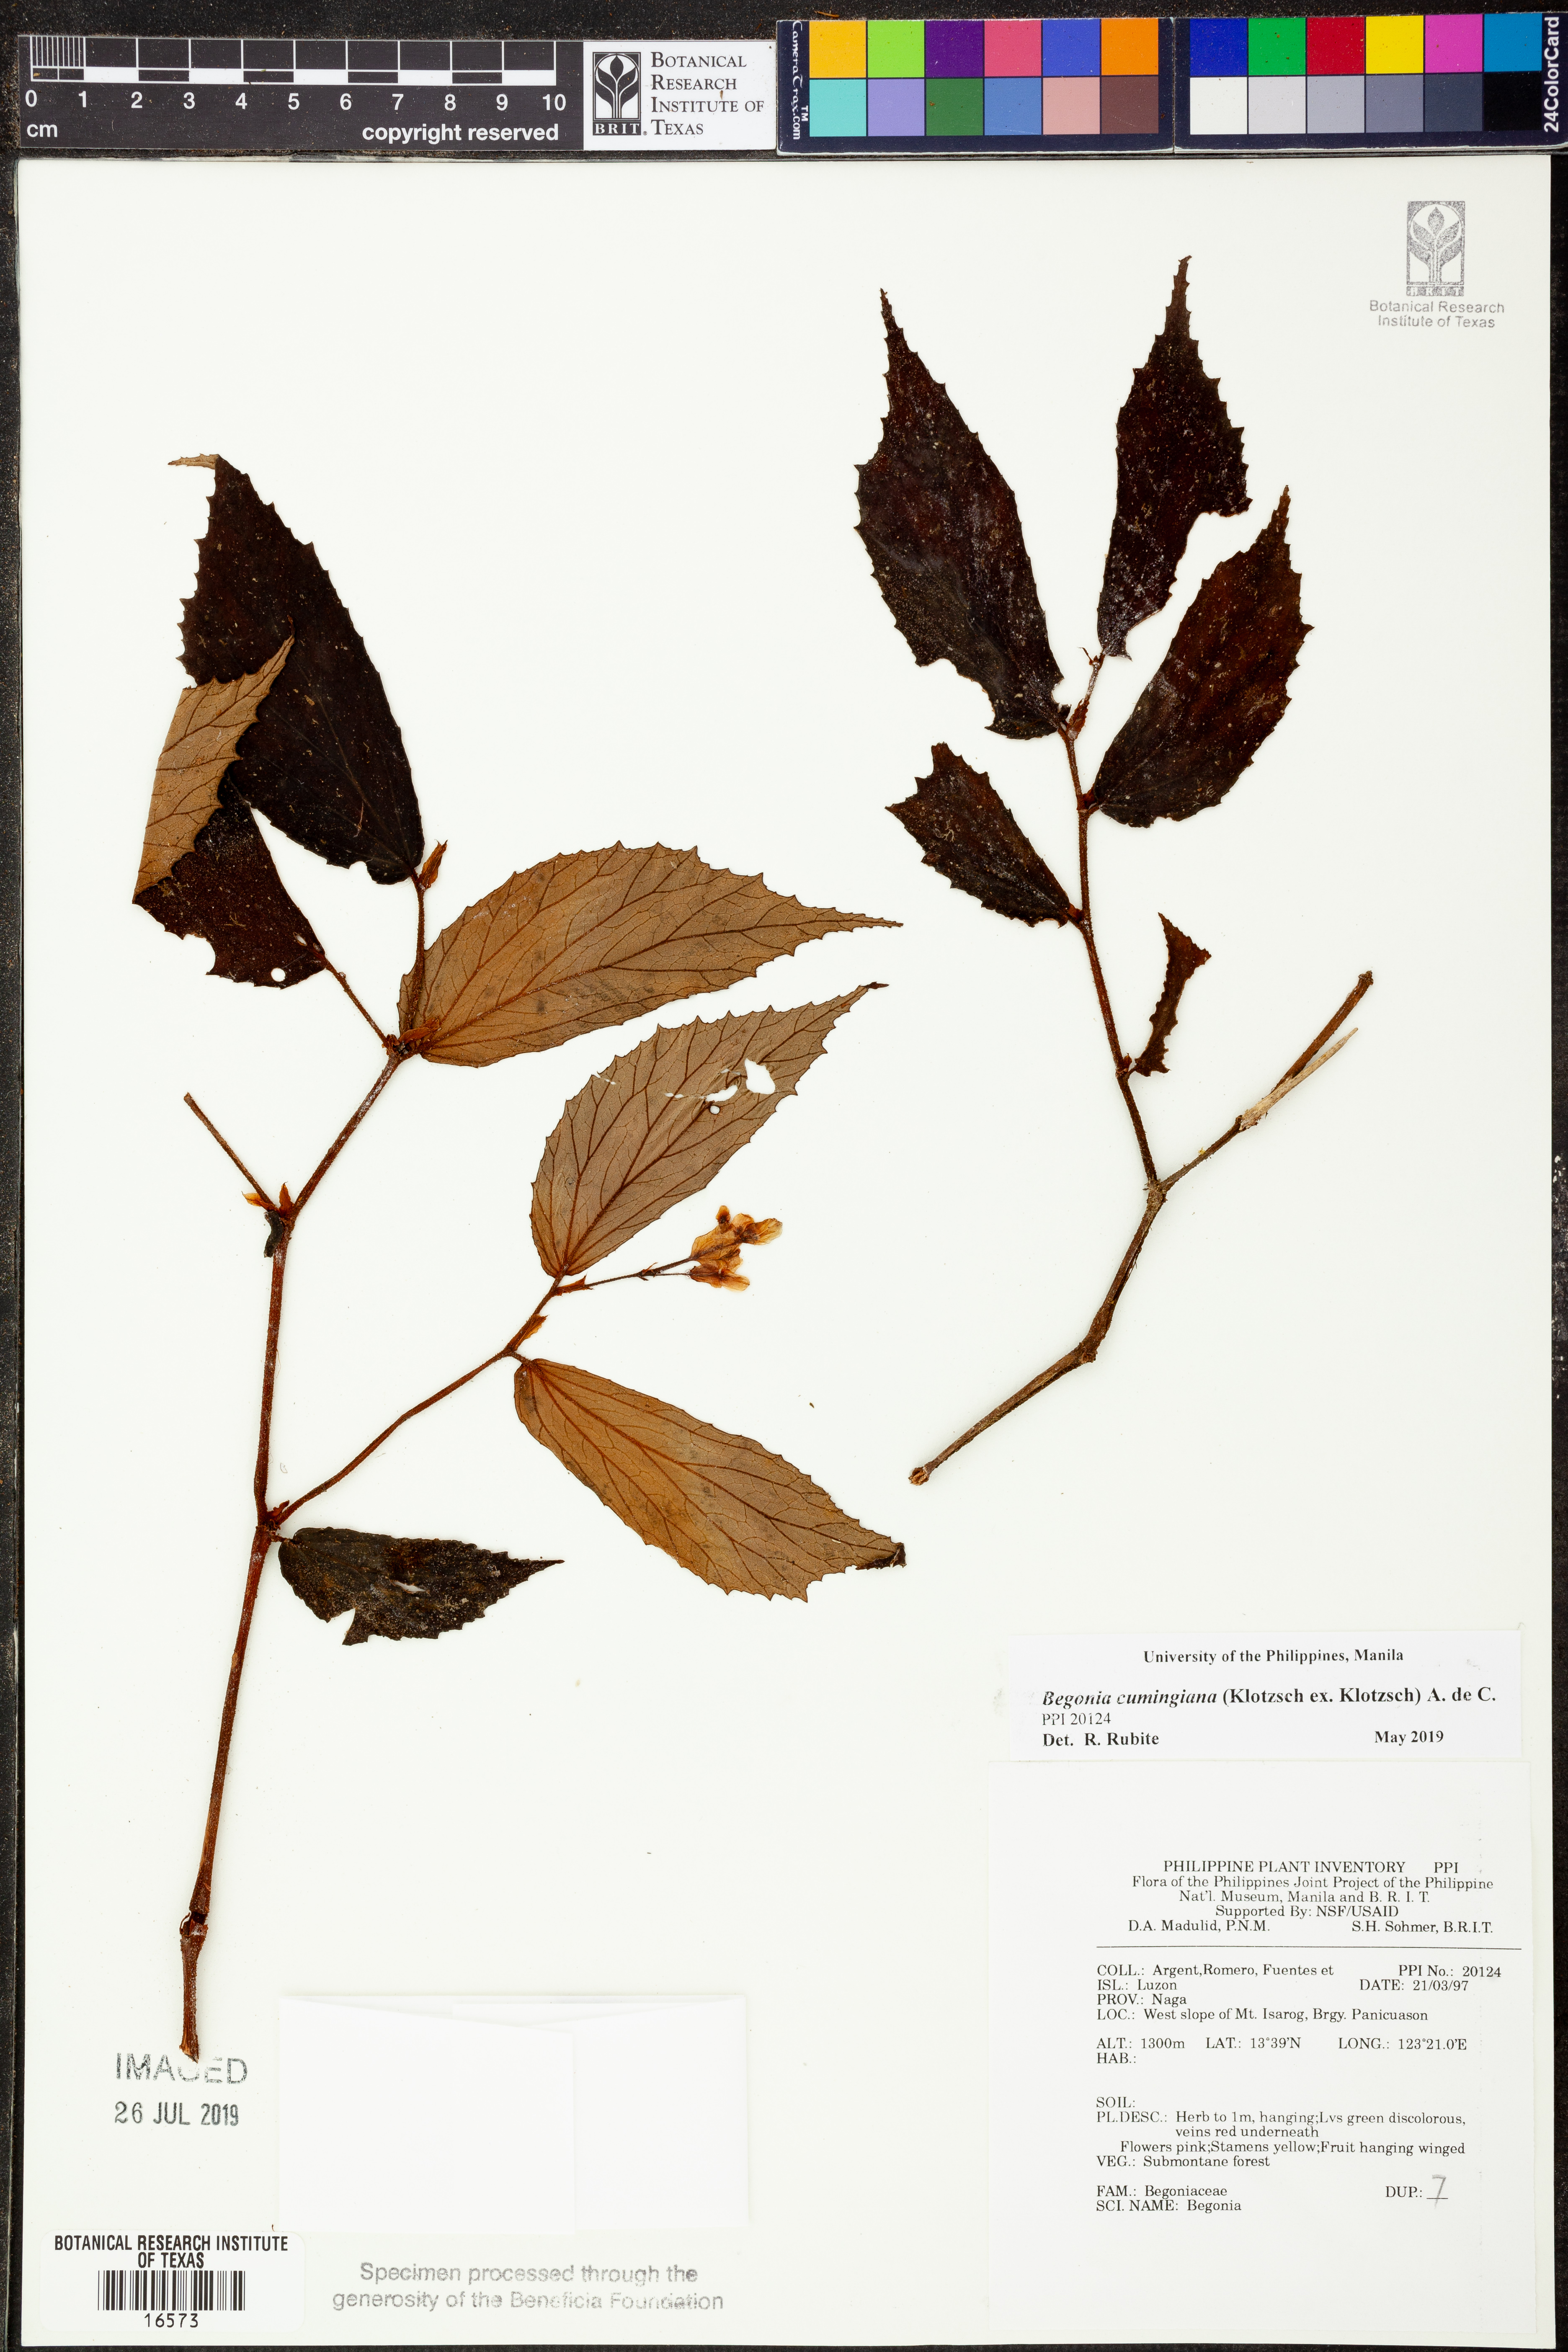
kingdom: Plantae
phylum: Tracheophyta
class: Magnoliopsida
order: Cucurbitales
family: Begoniaceae
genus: Begonia
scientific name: Begonia cumingiana
